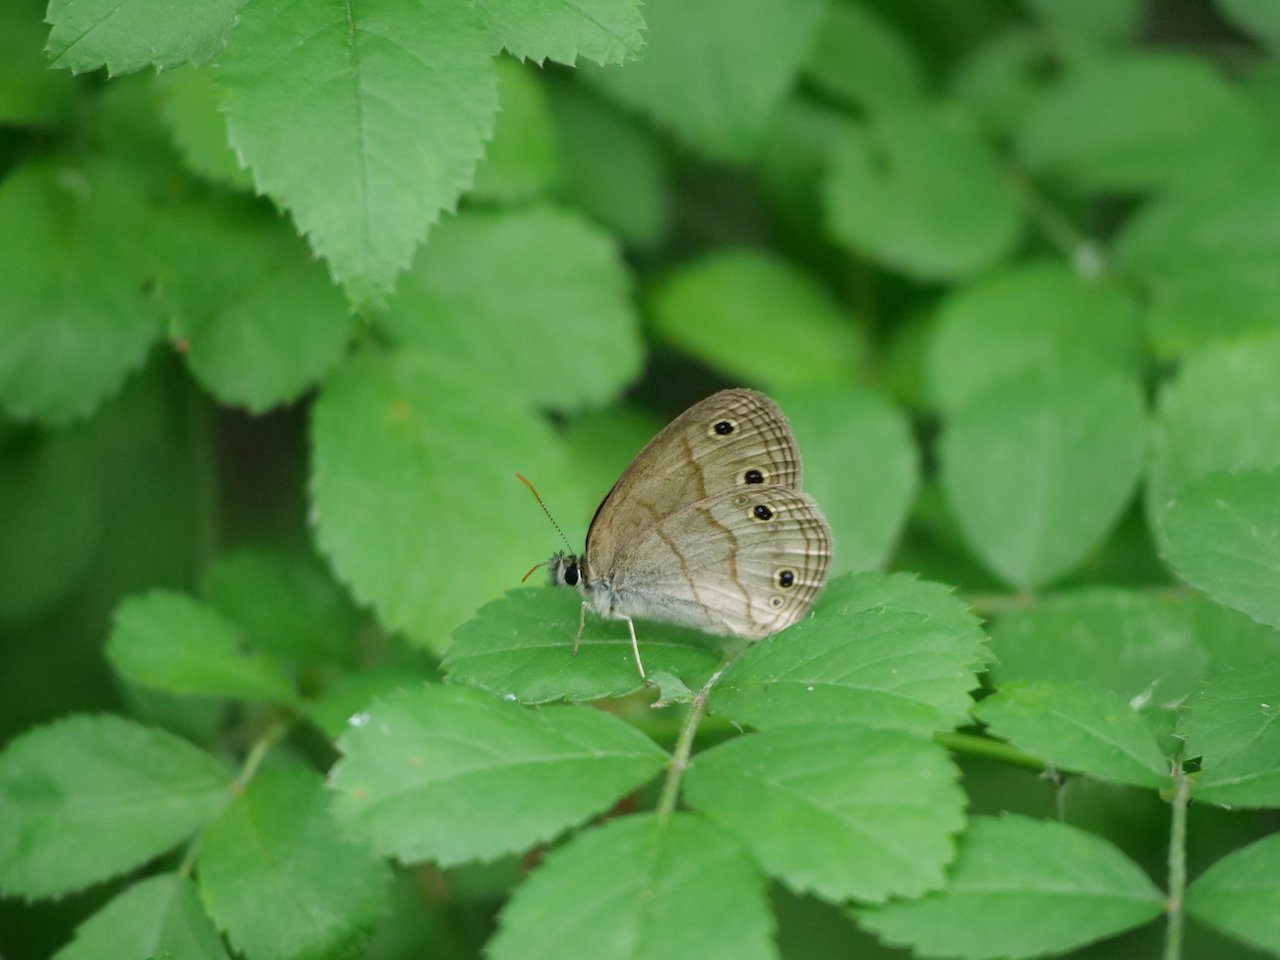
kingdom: Animalia
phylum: Arthropoda
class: Insecta
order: Lepidoptera
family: Nymphalidae
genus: Euptychia
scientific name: Euptychia cymela
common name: Little Wood Satyr
